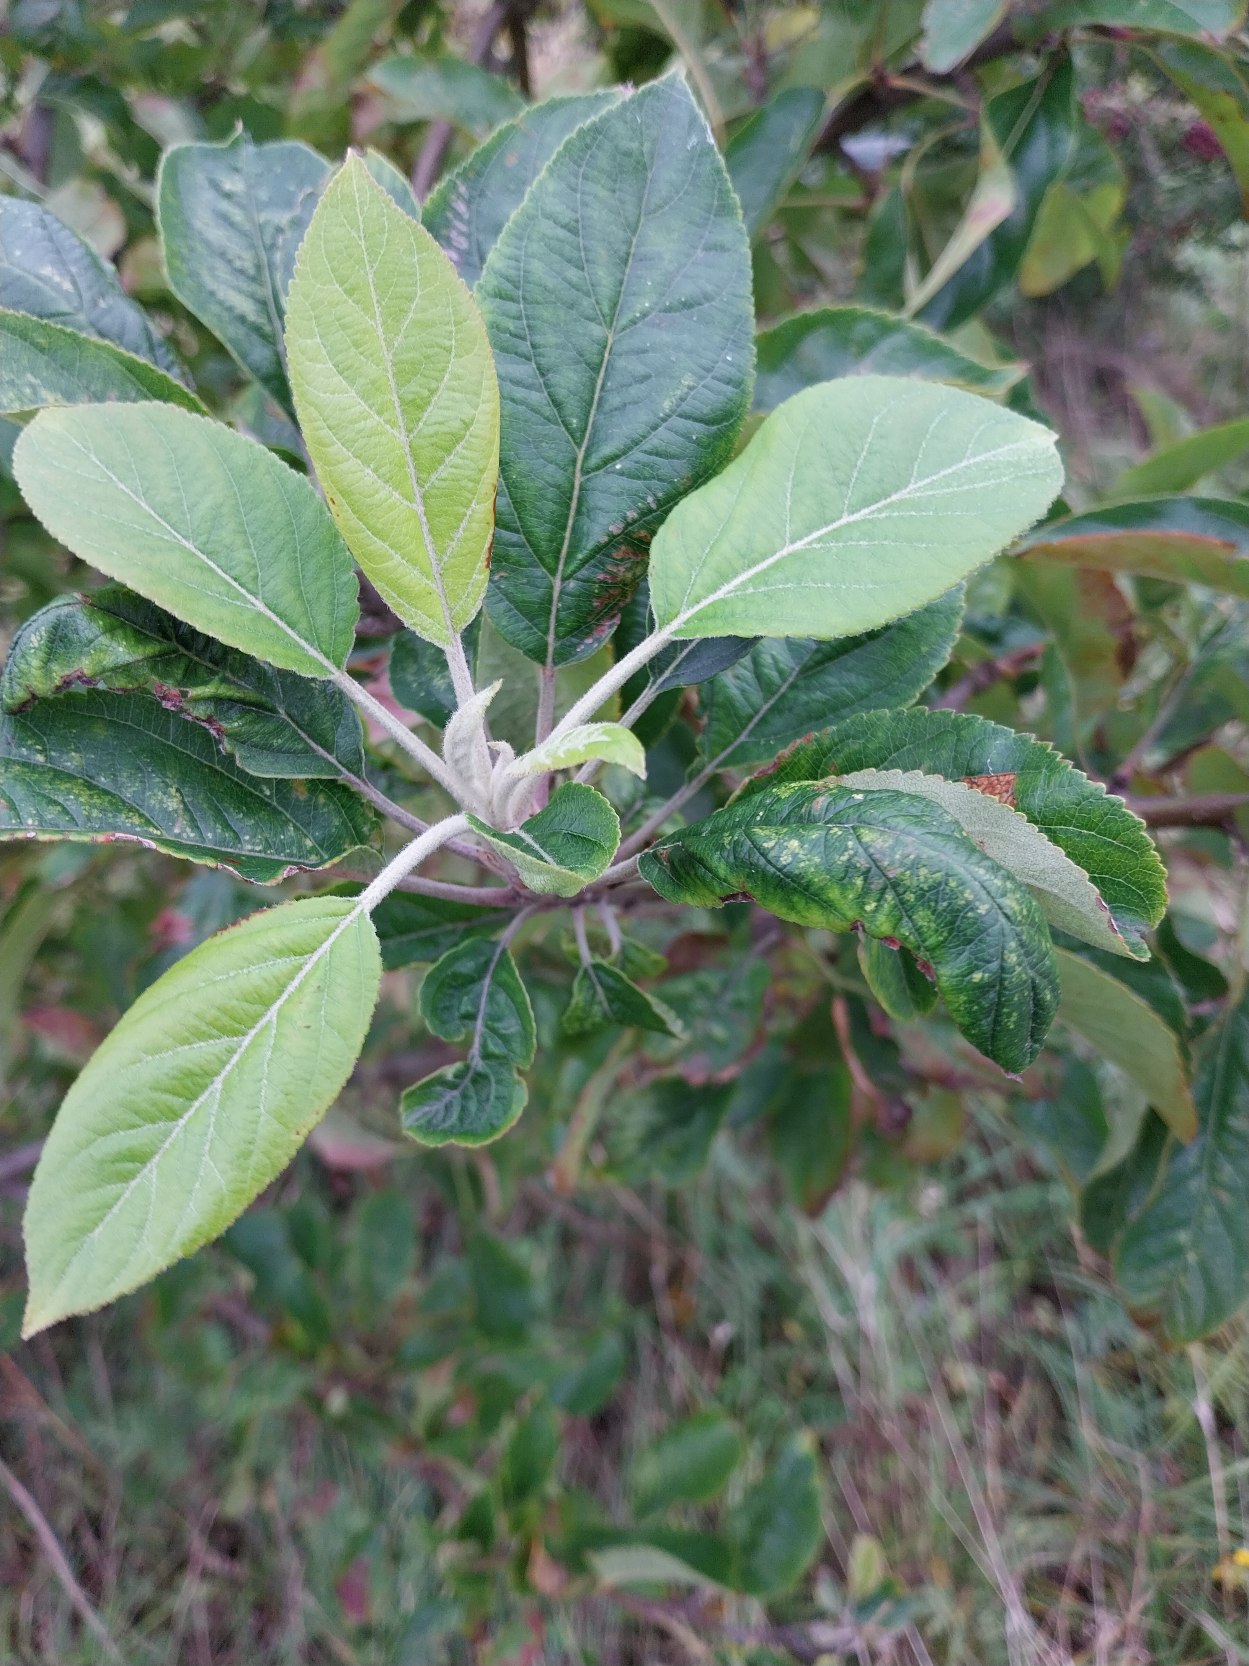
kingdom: Plantae
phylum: Tracheophyta
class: Magnoliopsida
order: Rosales
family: Rosaceae
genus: Malus
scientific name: Malus domestica
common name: Sød-æble
